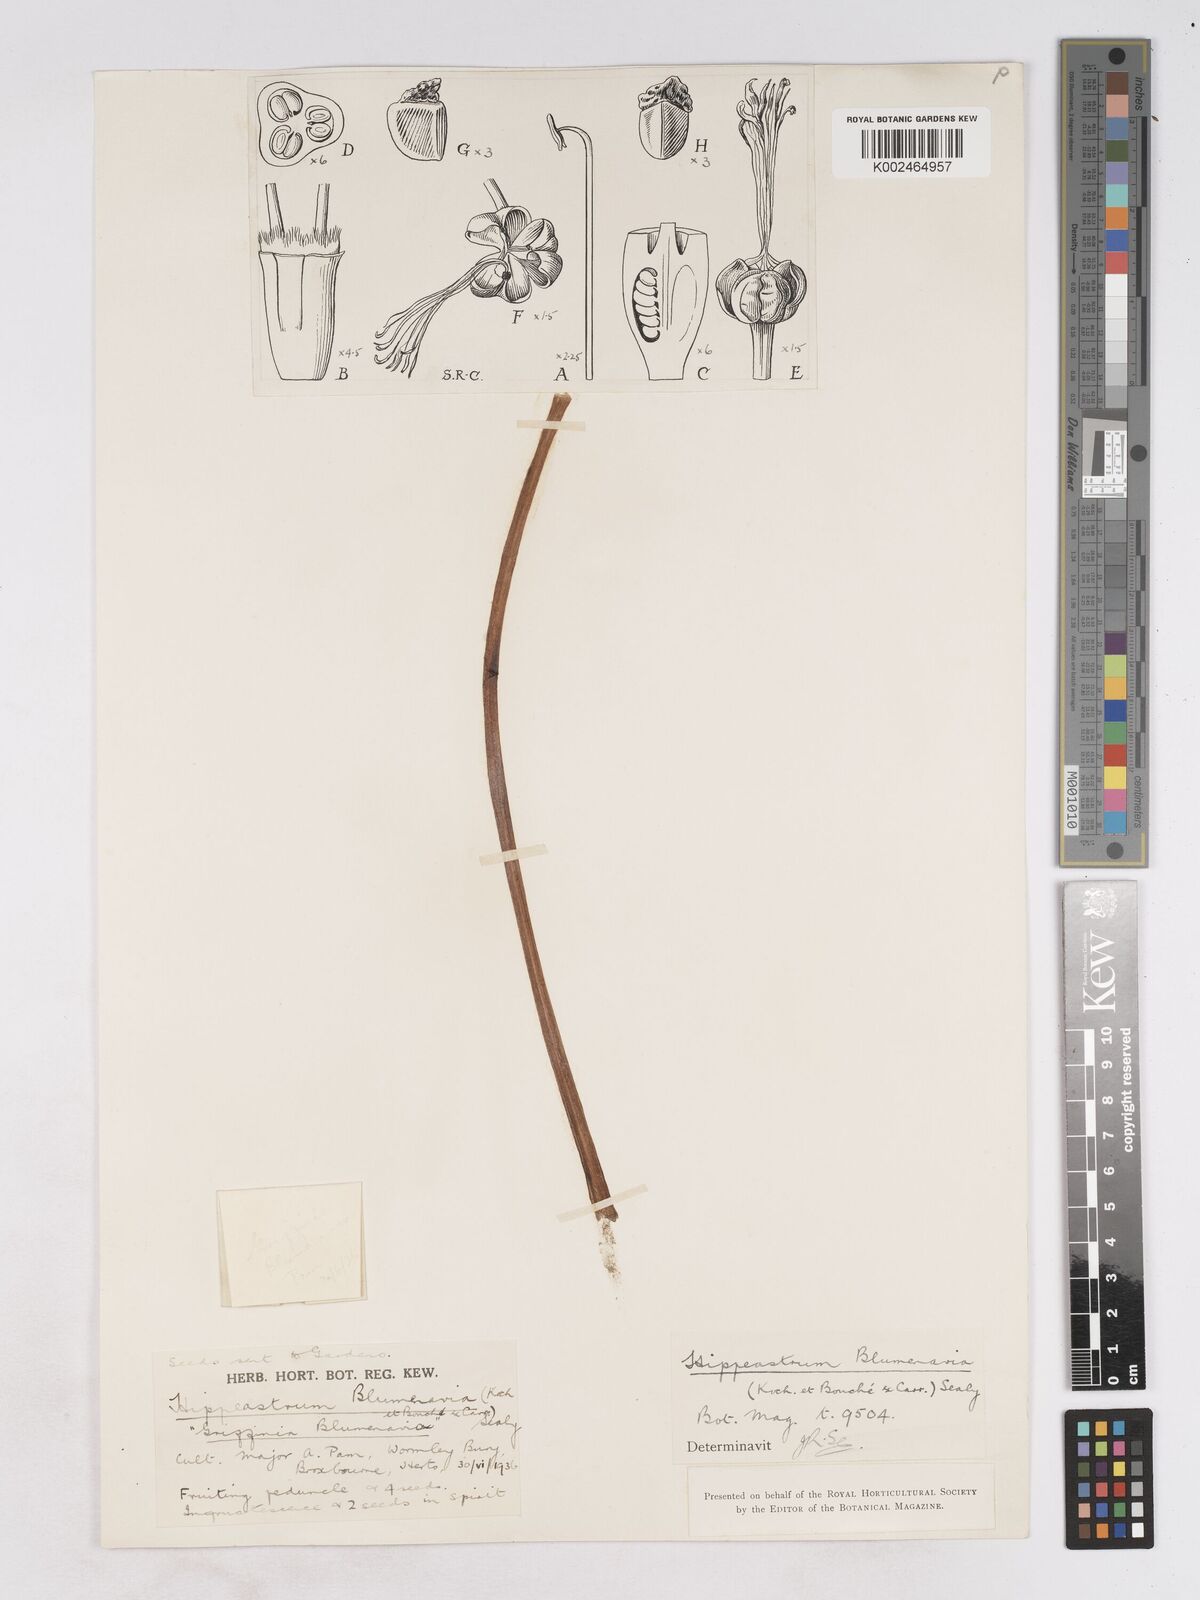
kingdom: Plantae
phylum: Tracheophyta
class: Liliopsida
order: Asparagales
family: Amaryllidaceae
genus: Zephyranthes
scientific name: Zephyranthes blumenavia
